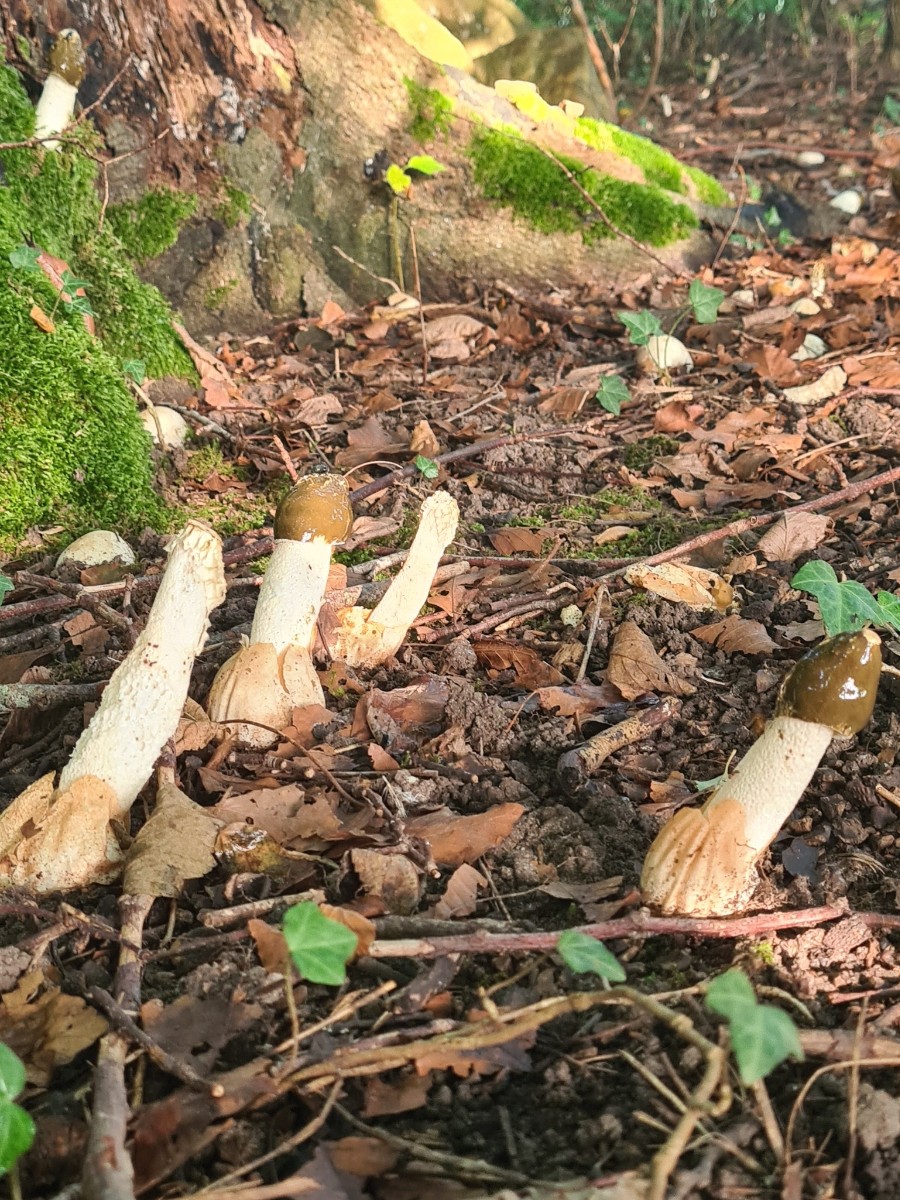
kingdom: Fungi
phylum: Basidiomycota
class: Agaricomycetes
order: Phallales
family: Phallaceae
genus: Phallus
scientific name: Phallus impudicus
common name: almindelig stinksvamp
